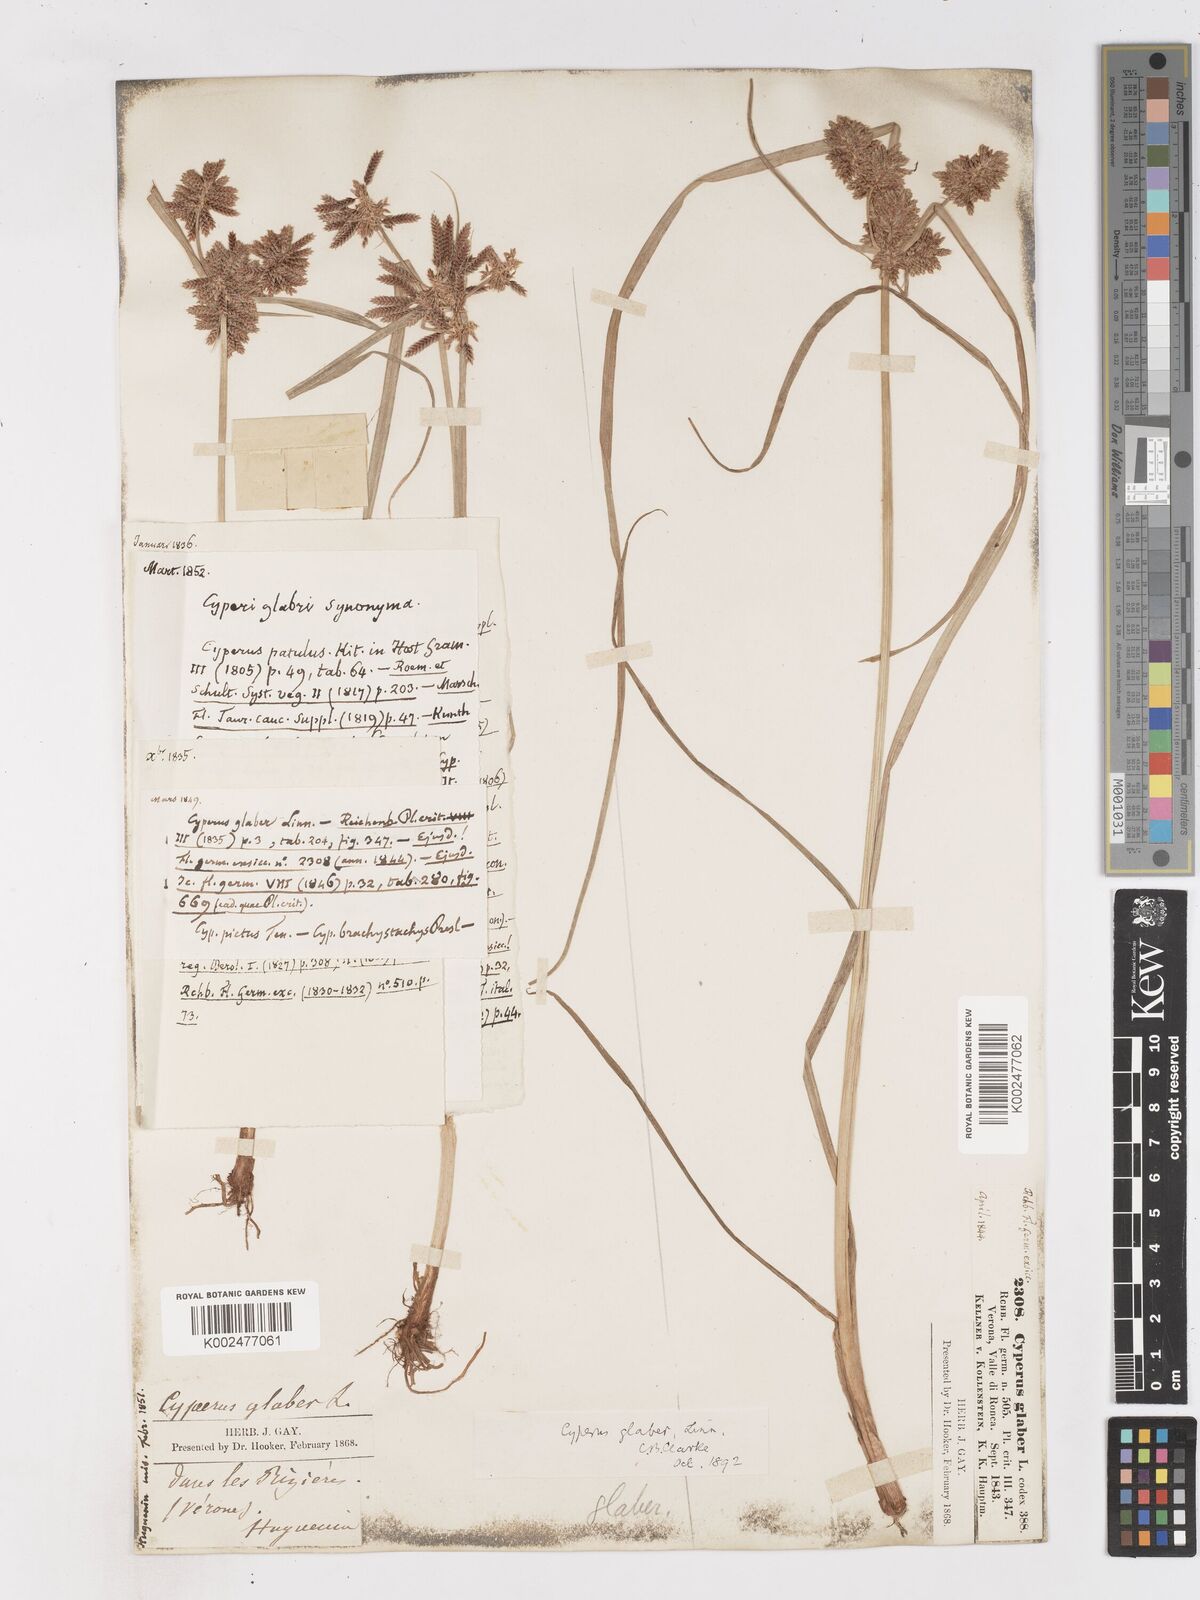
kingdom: Plantae
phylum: Tracheophyta
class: Liliopsida
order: Poales
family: Cyperaceae
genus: Cyperus
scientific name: Cyperus glaber
